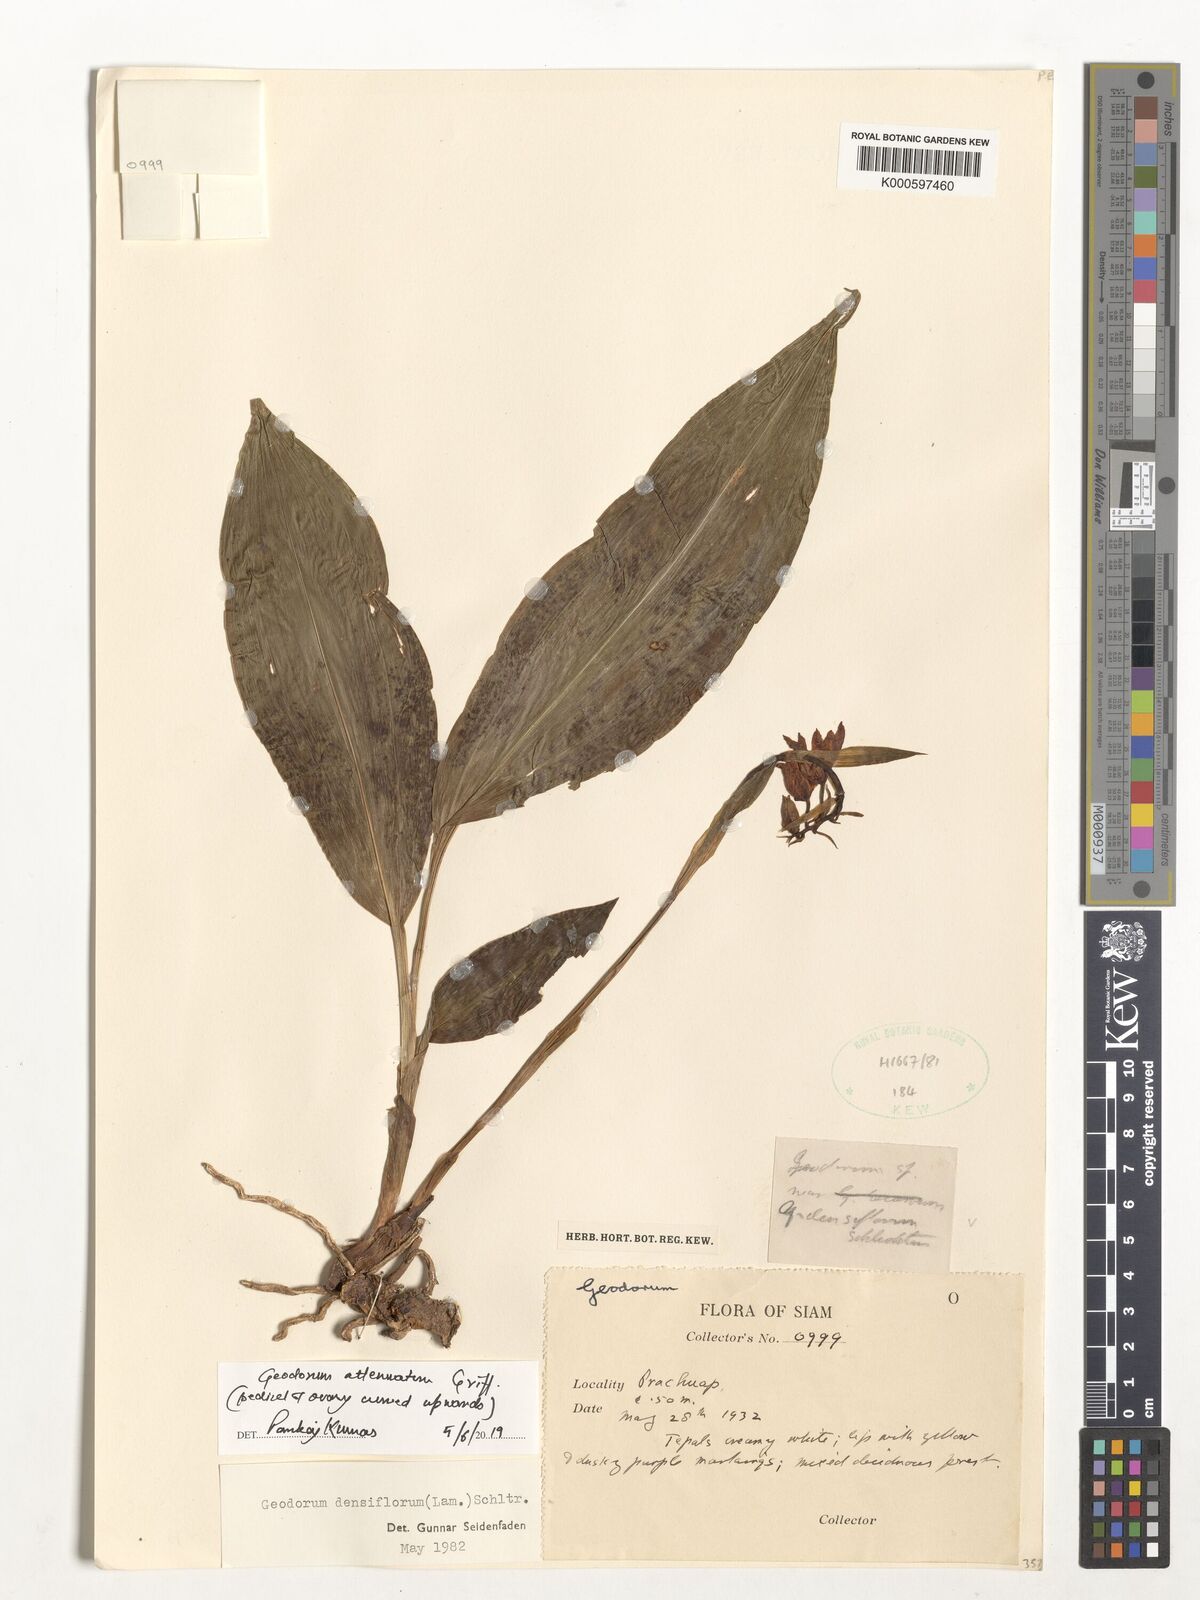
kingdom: Plantae
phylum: Tracheophyta
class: Liliopsida
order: Asparagales
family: Orchidaceae
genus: Eulophia
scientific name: Eulophia cernua
